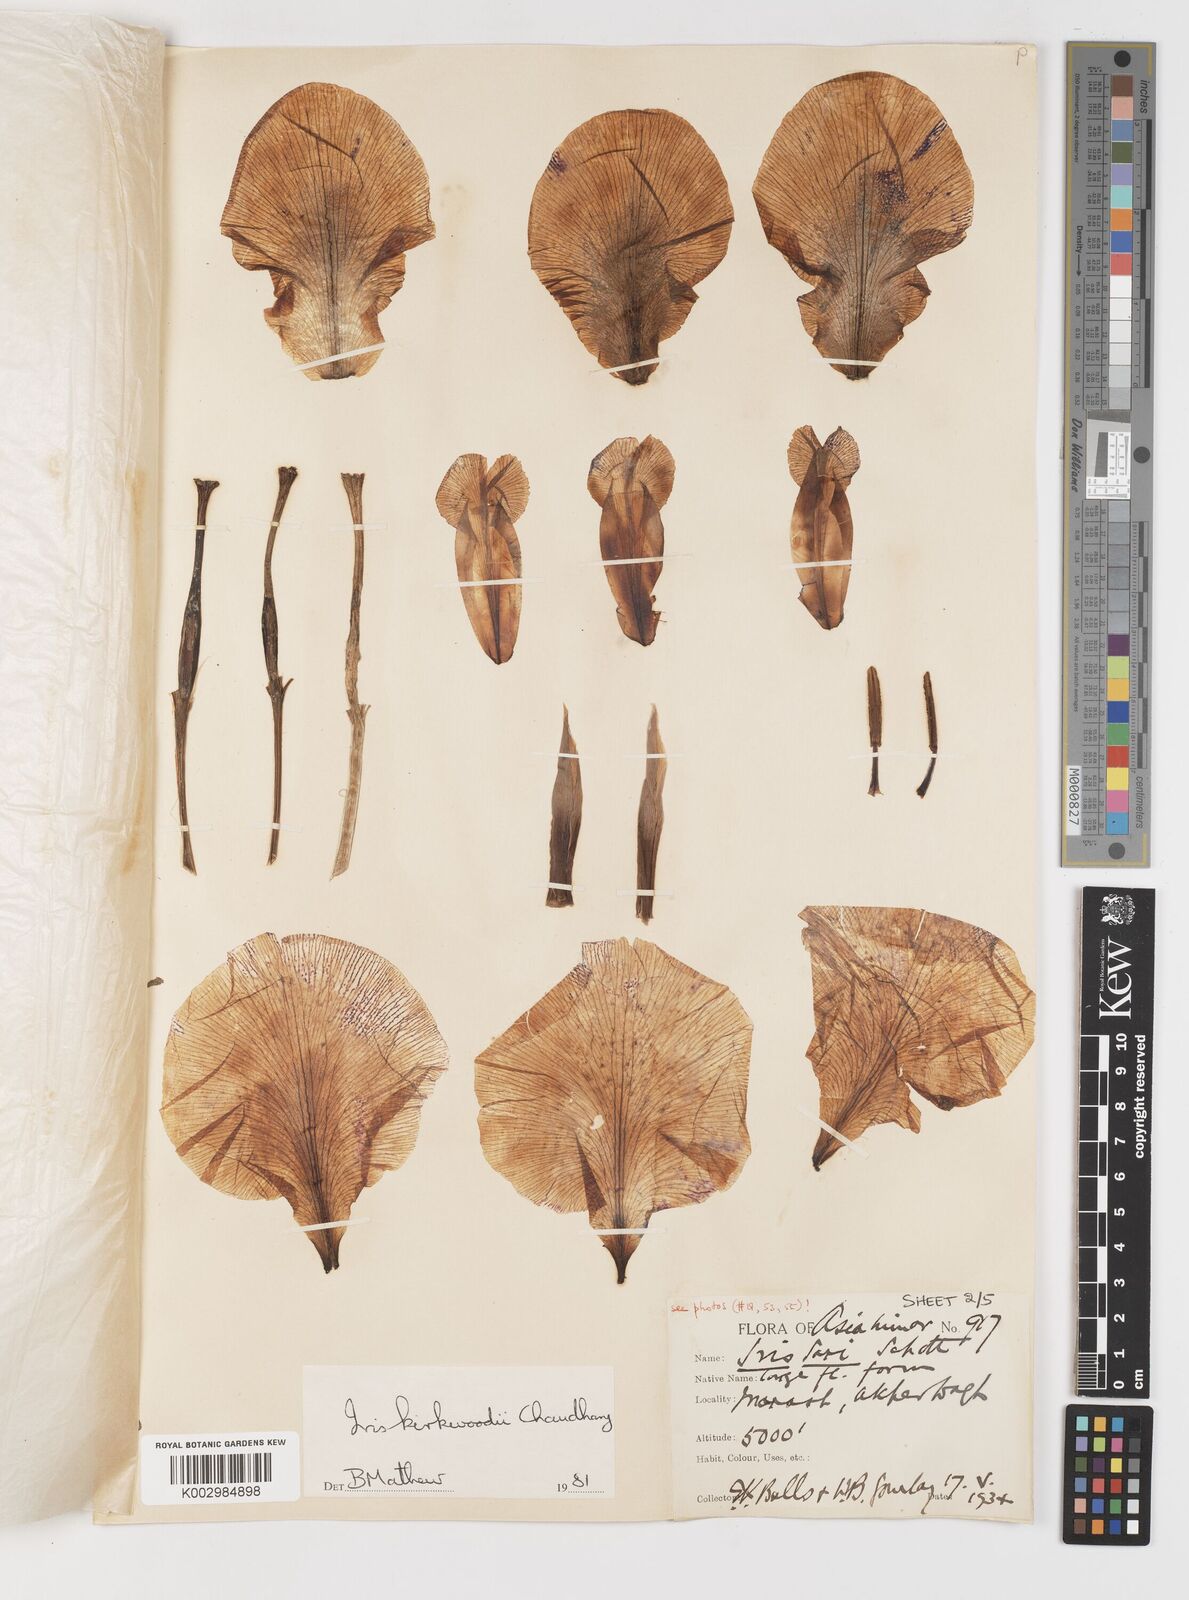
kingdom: Plantae
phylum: Tracheophyta
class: Liliopsida
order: Asparagales
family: Iridaceae
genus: Iris
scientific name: Iris kirkwoodiae
